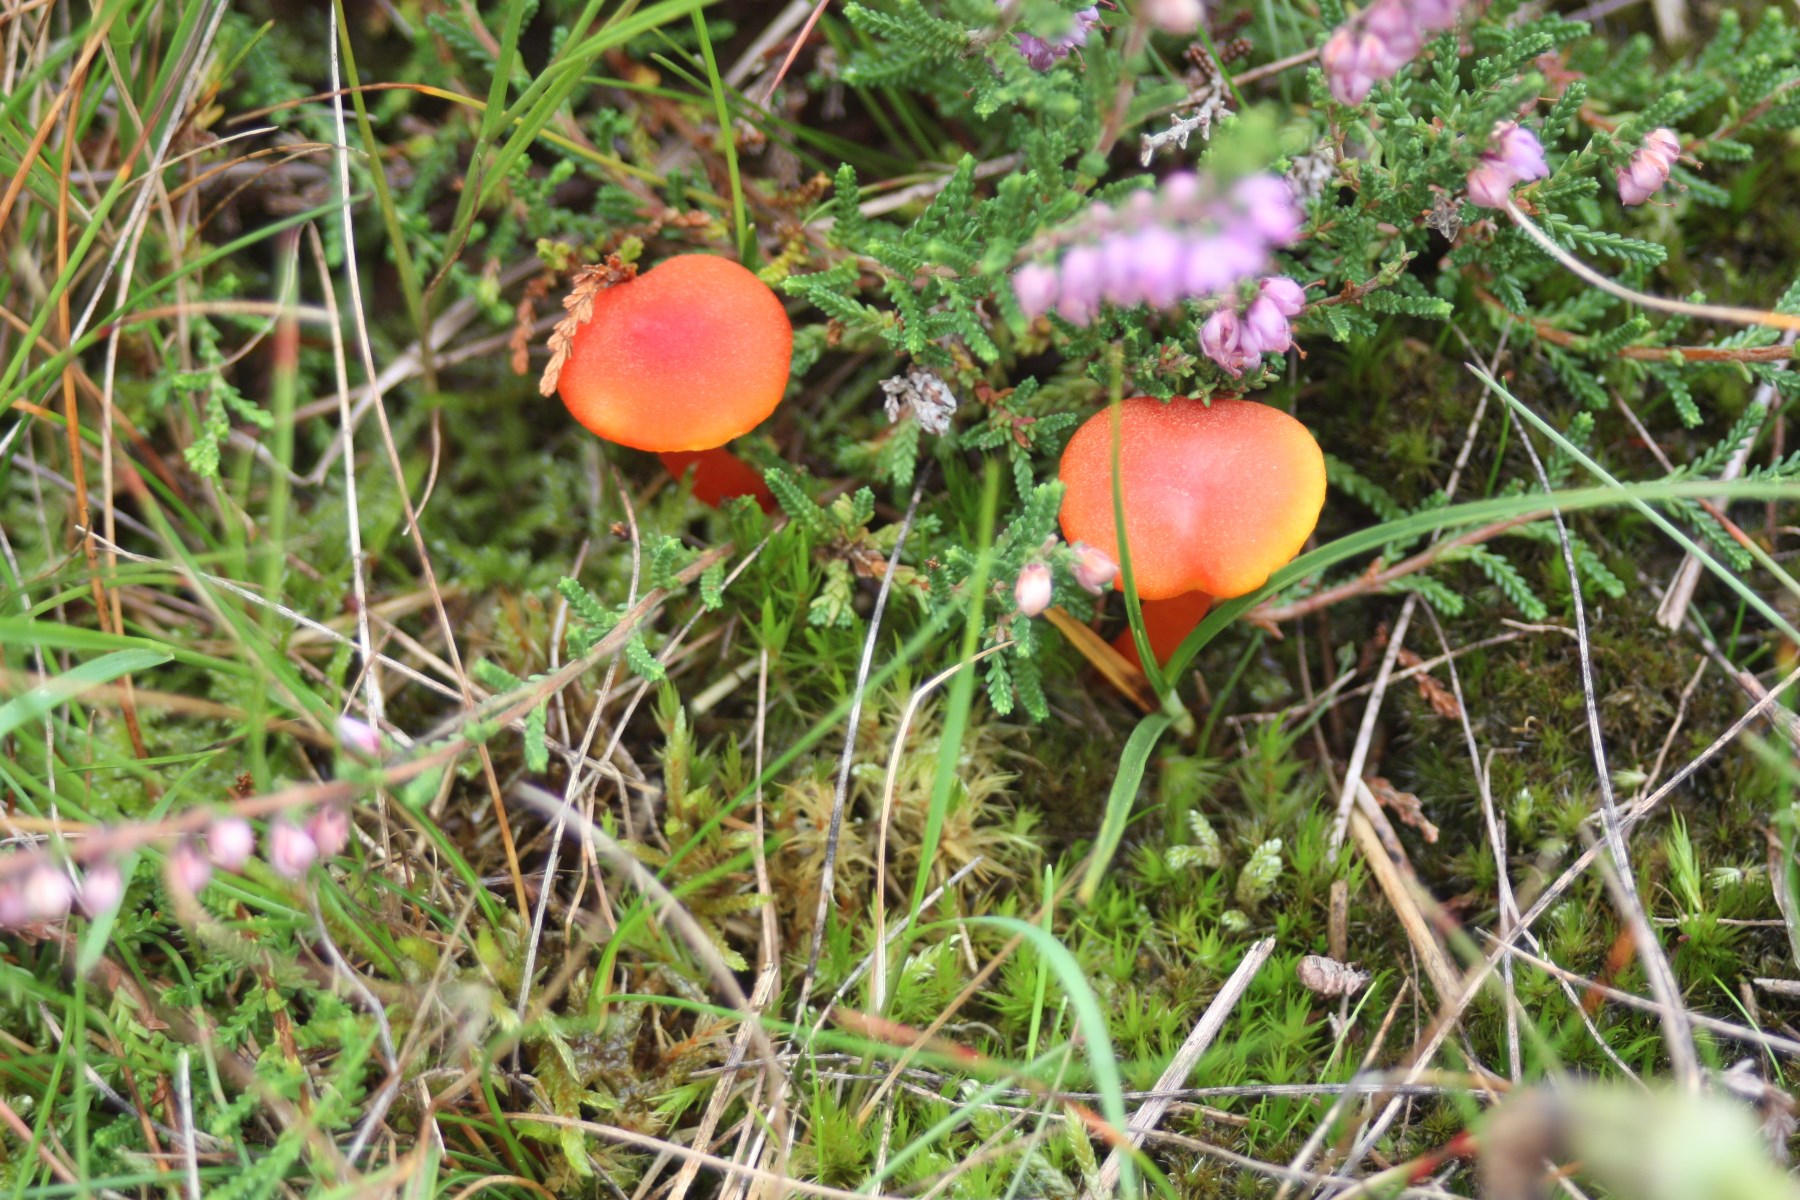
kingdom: Fungi
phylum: Basidiomycota
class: Agaricomycetes
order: Agaricales
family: Hygrophoraceae
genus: Hygrocybe
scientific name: Hygrocybe miniata
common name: mønje-vokshat
